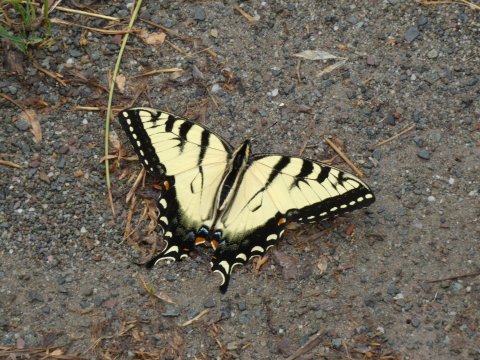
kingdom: Animalia
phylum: Arthropoda
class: Insecta
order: Lepidoptera
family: Papilionidae
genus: Pterourus
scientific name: Pterourus glaucus
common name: Eastern Tiger Swallowtail
